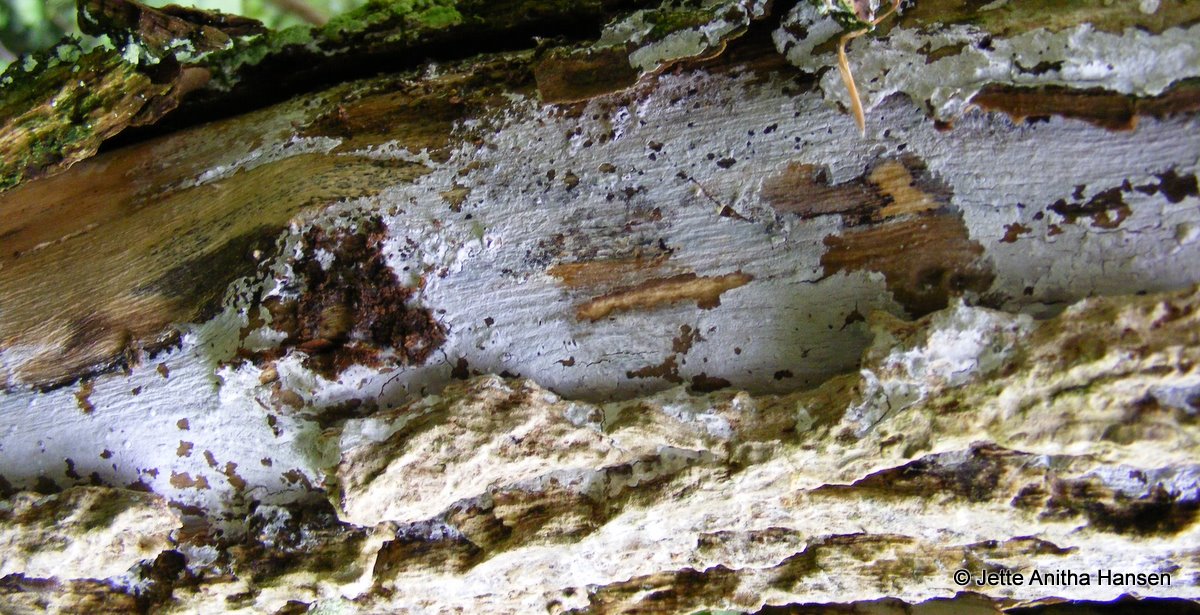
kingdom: Fungi
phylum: Basidiomycota
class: Agaricomycetes
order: Corticiales
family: Corticiaceae
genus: Lyomyces
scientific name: Lyomyces sambuci
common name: almindelig hyldehinde
